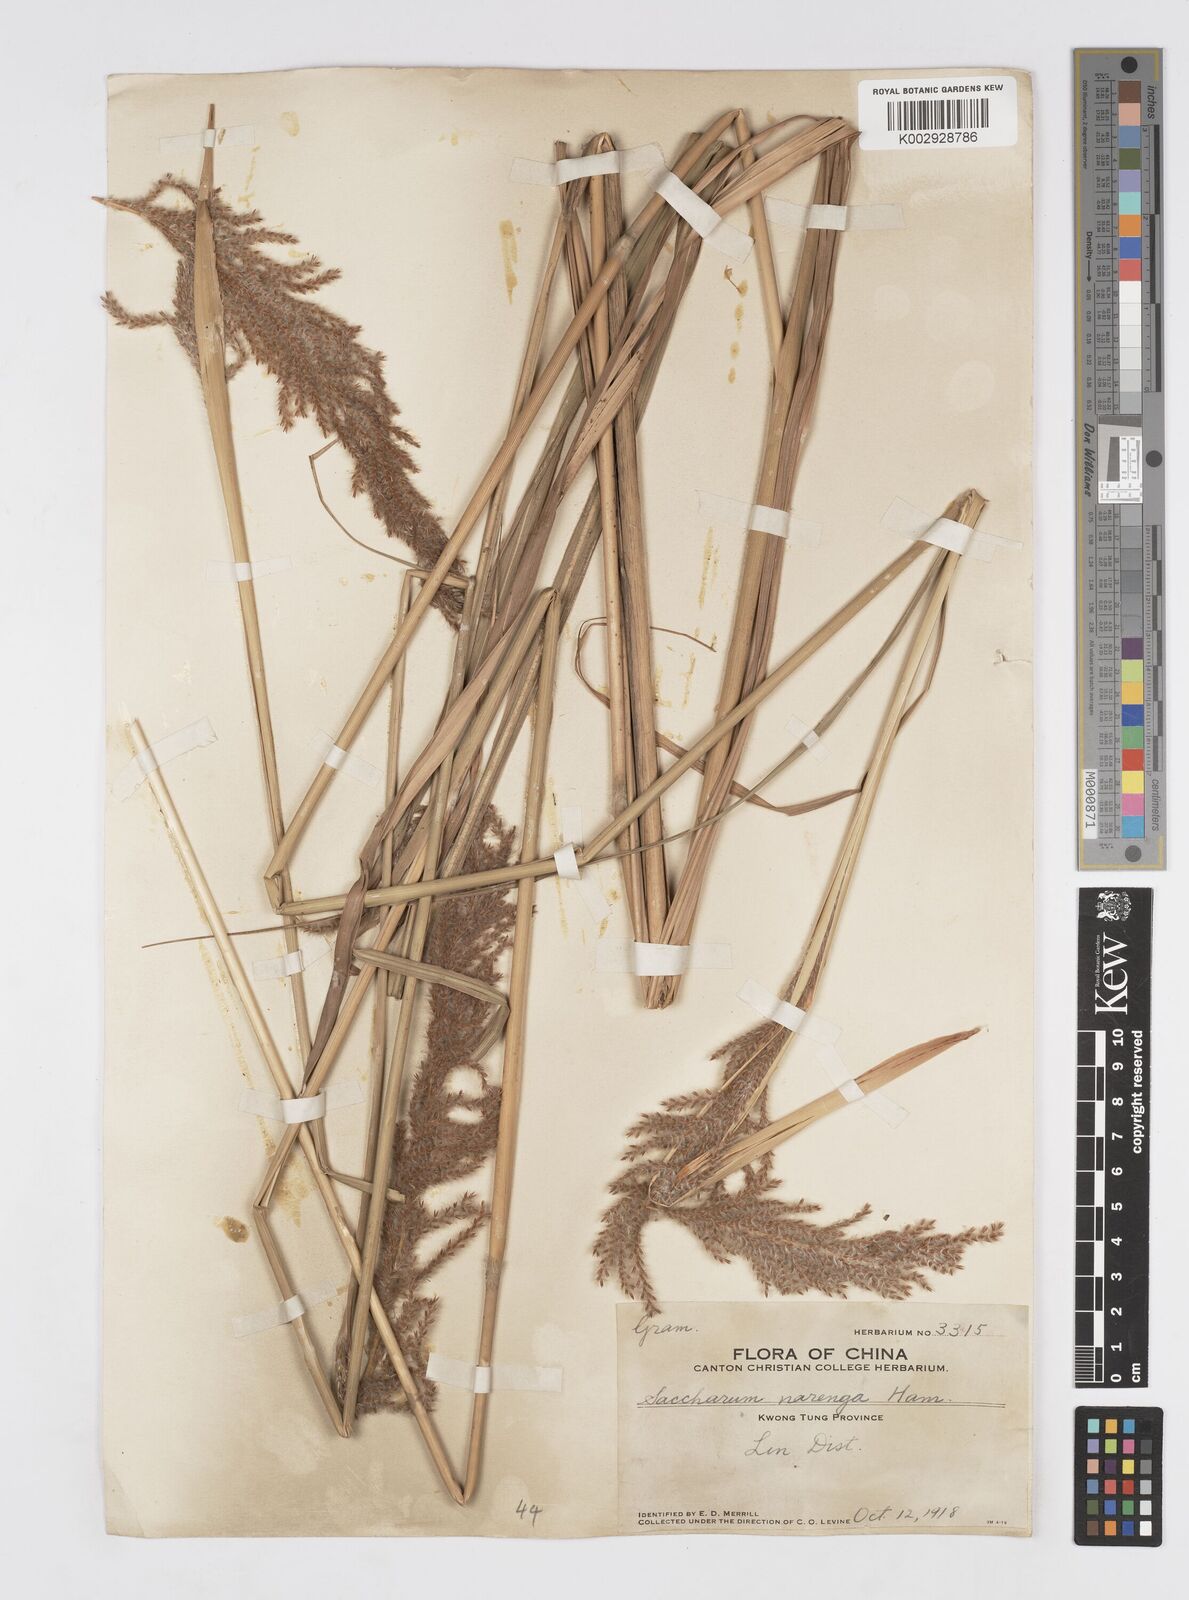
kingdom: Plantae
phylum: Tracheophyta
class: Liliopsida
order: Poales
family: Poaceae
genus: Narenga
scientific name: Narenga porphyrocoma
